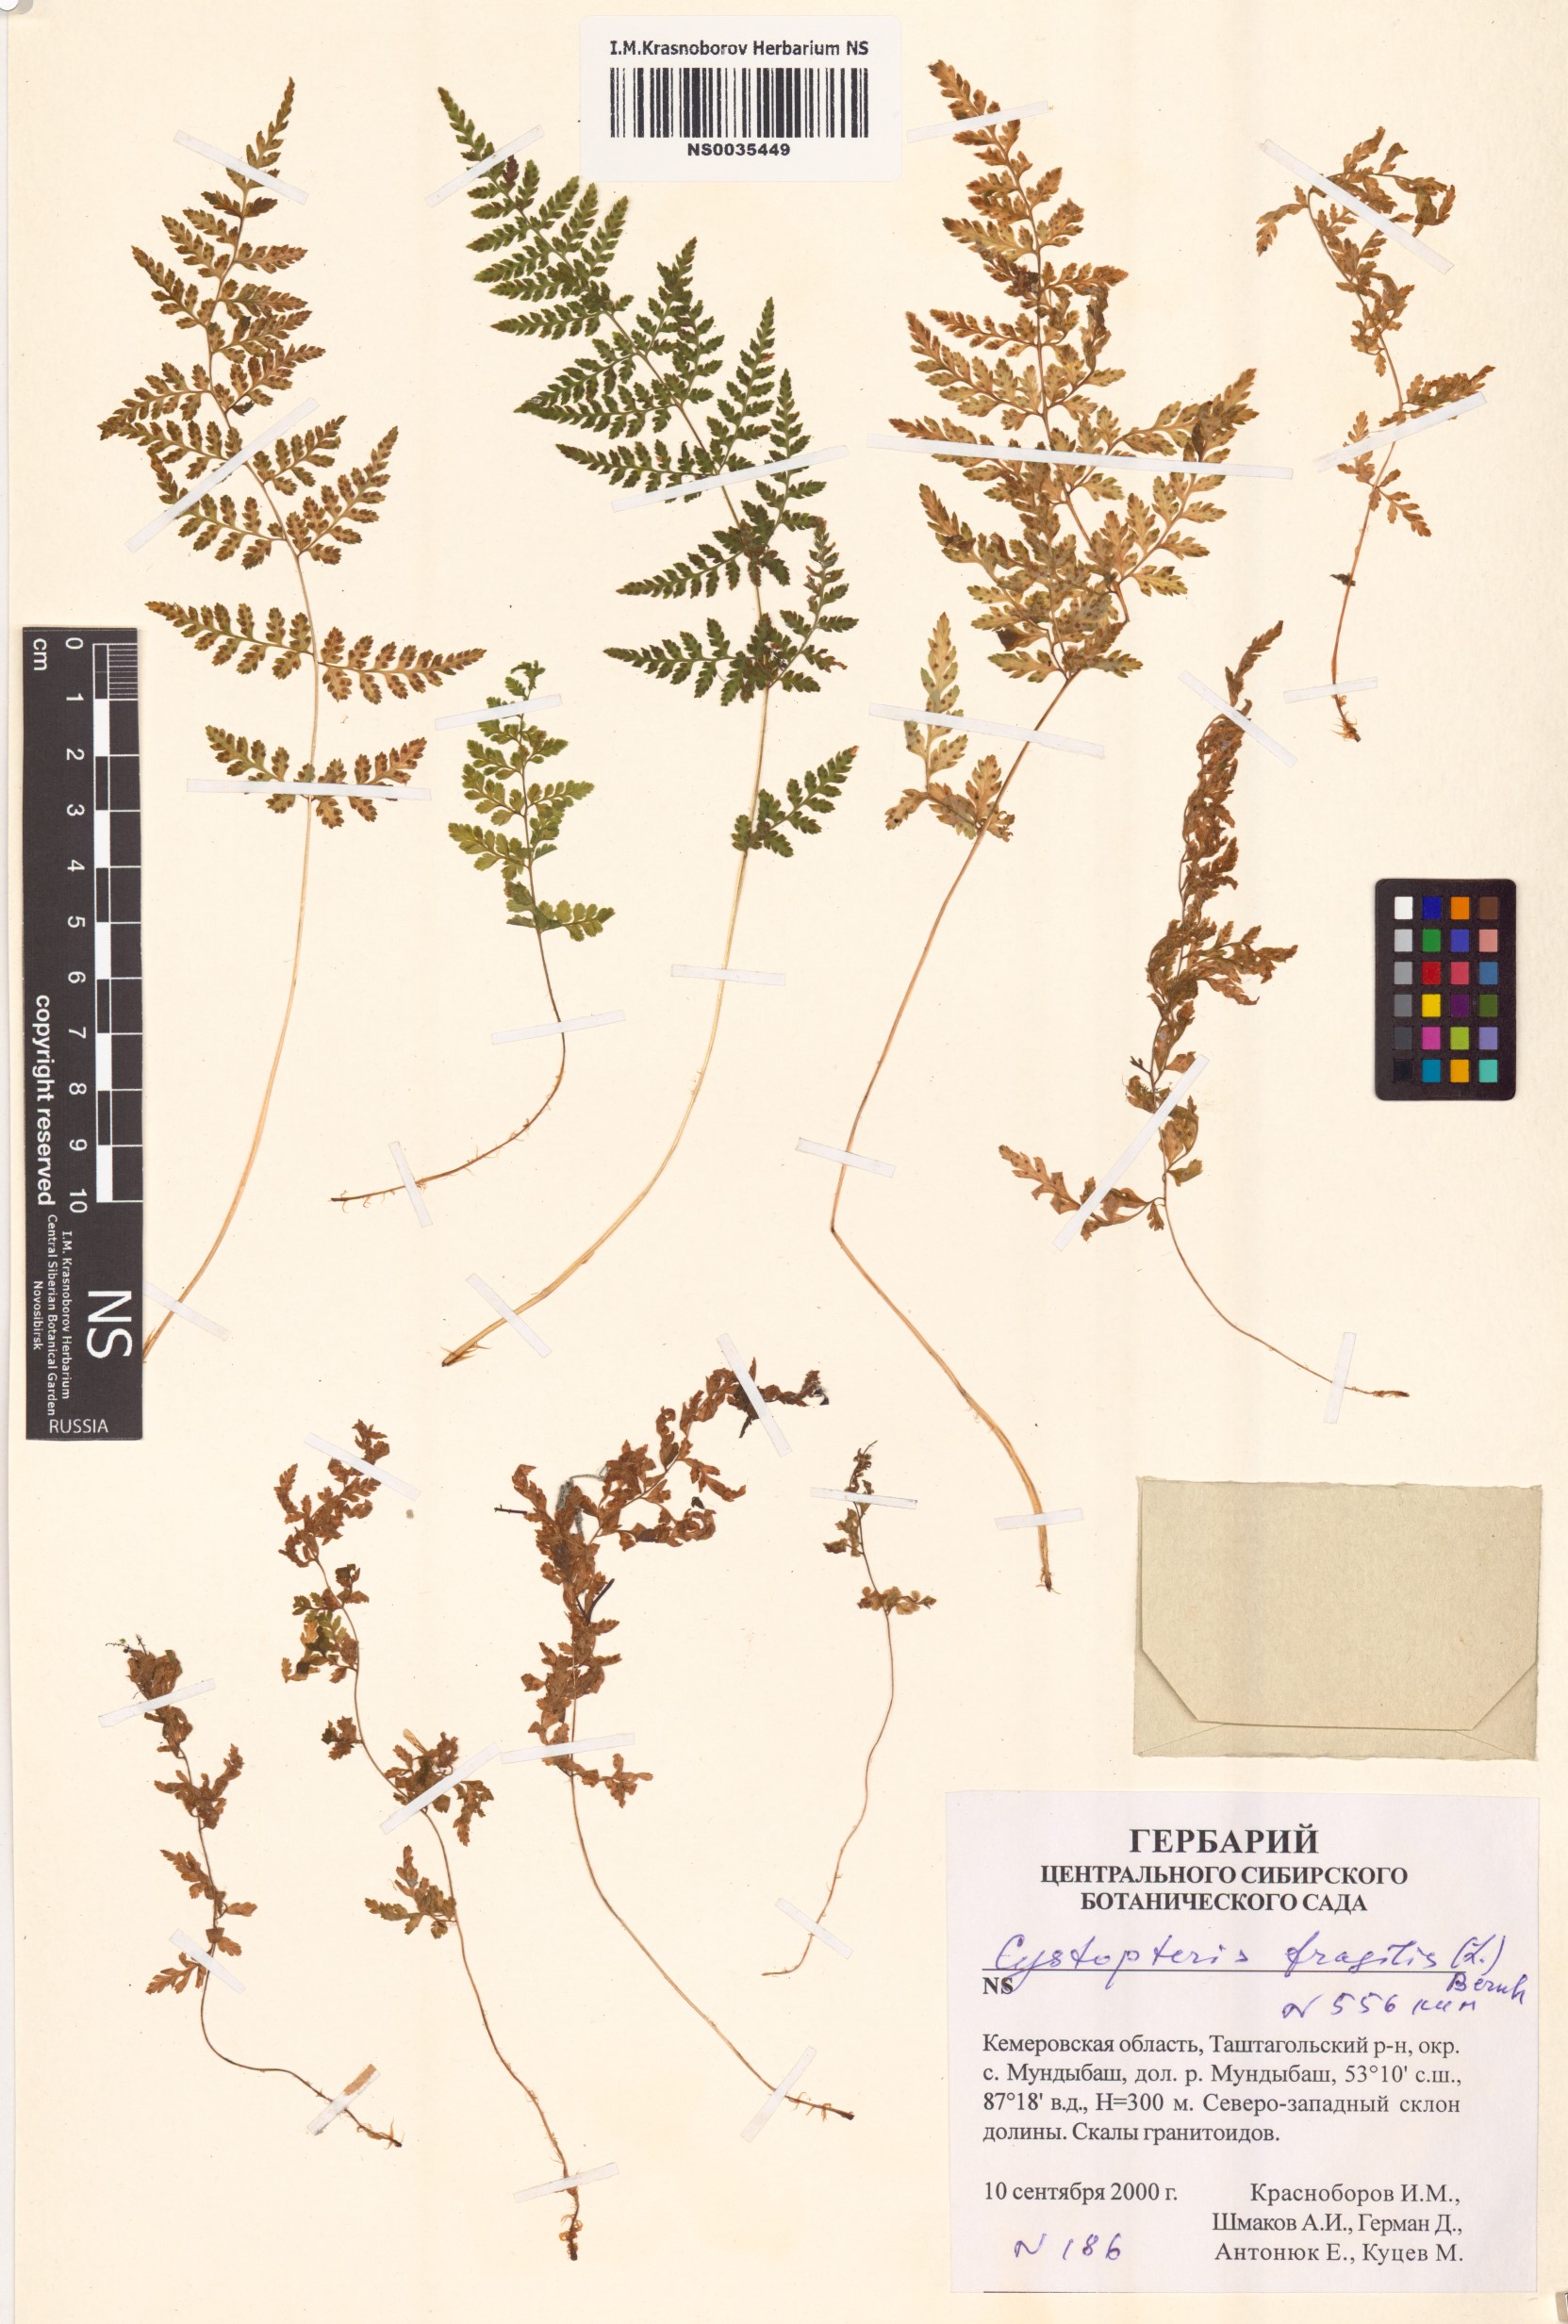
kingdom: Plantae
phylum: Tracheophyta
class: Polypodiopsida
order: Polypodiales
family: Cystopteridaceae
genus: Cystopteris
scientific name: Cystopteris fragilis
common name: Brittle bladder fern
